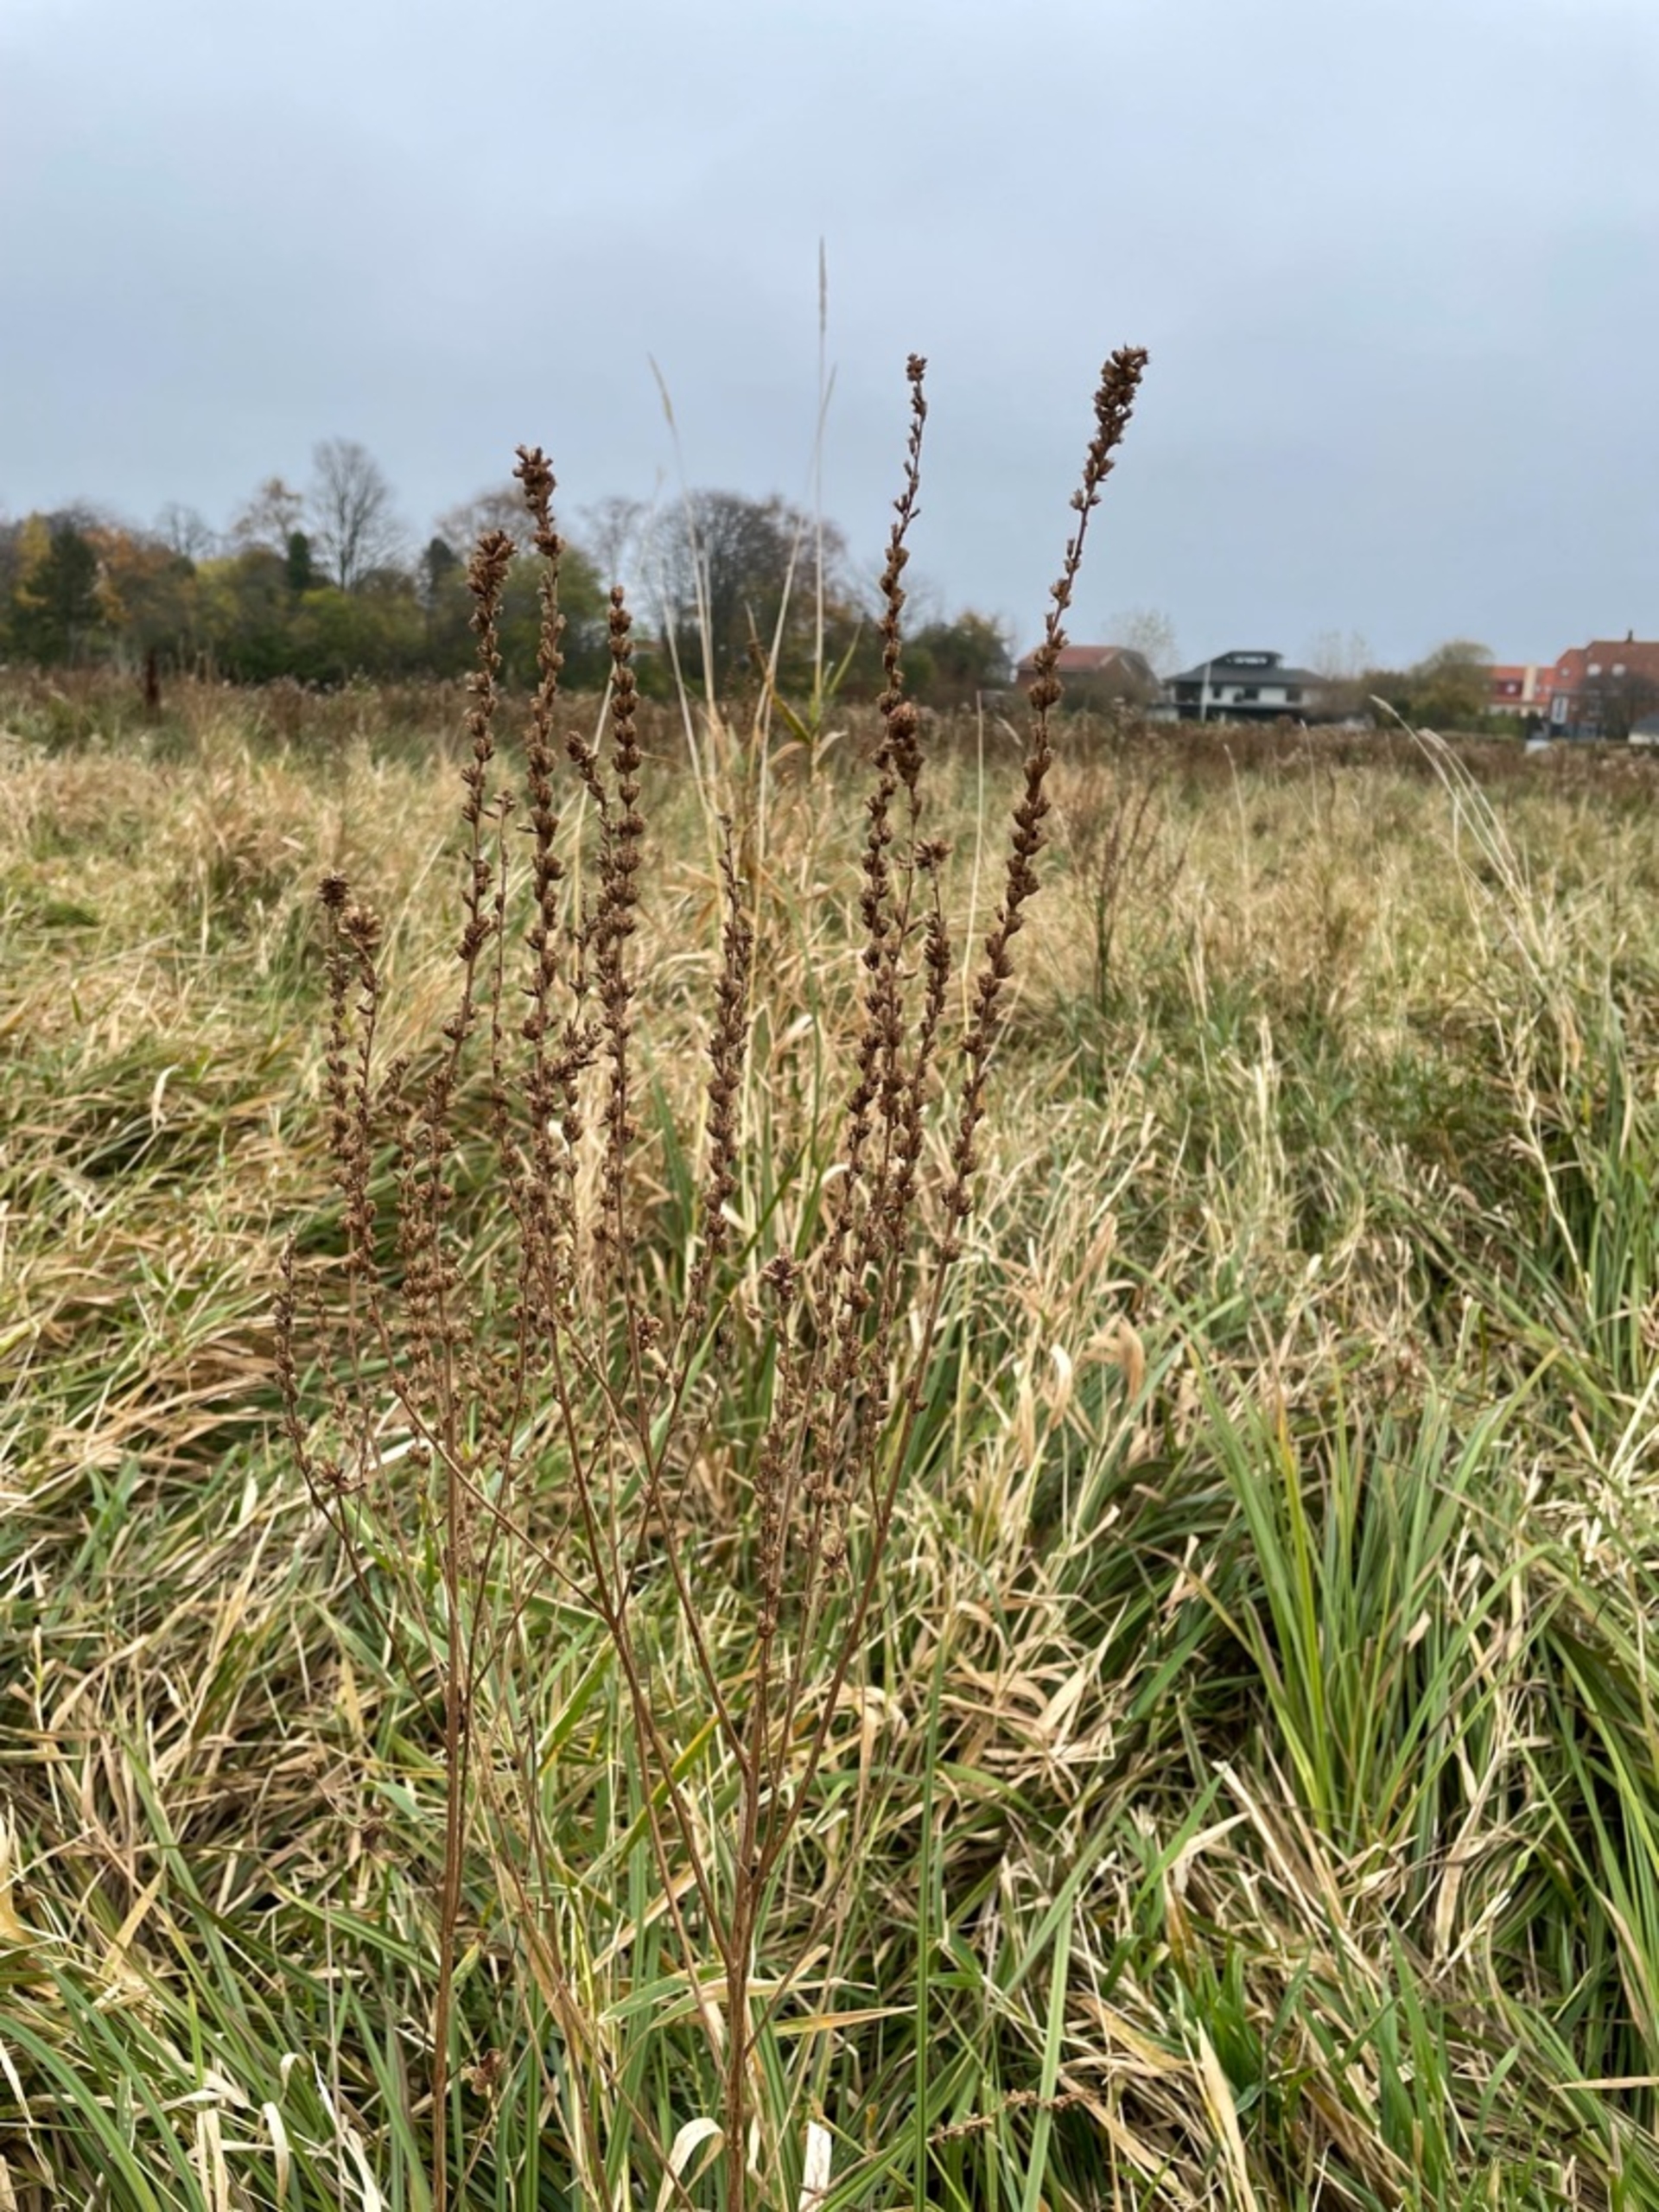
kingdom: Plantae
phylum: Tracheophyta
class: Magnoliopsida
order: Myrtales
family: Lythraceae
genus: Lythrum
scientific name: Lythrum salicaria
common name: Kattehale
